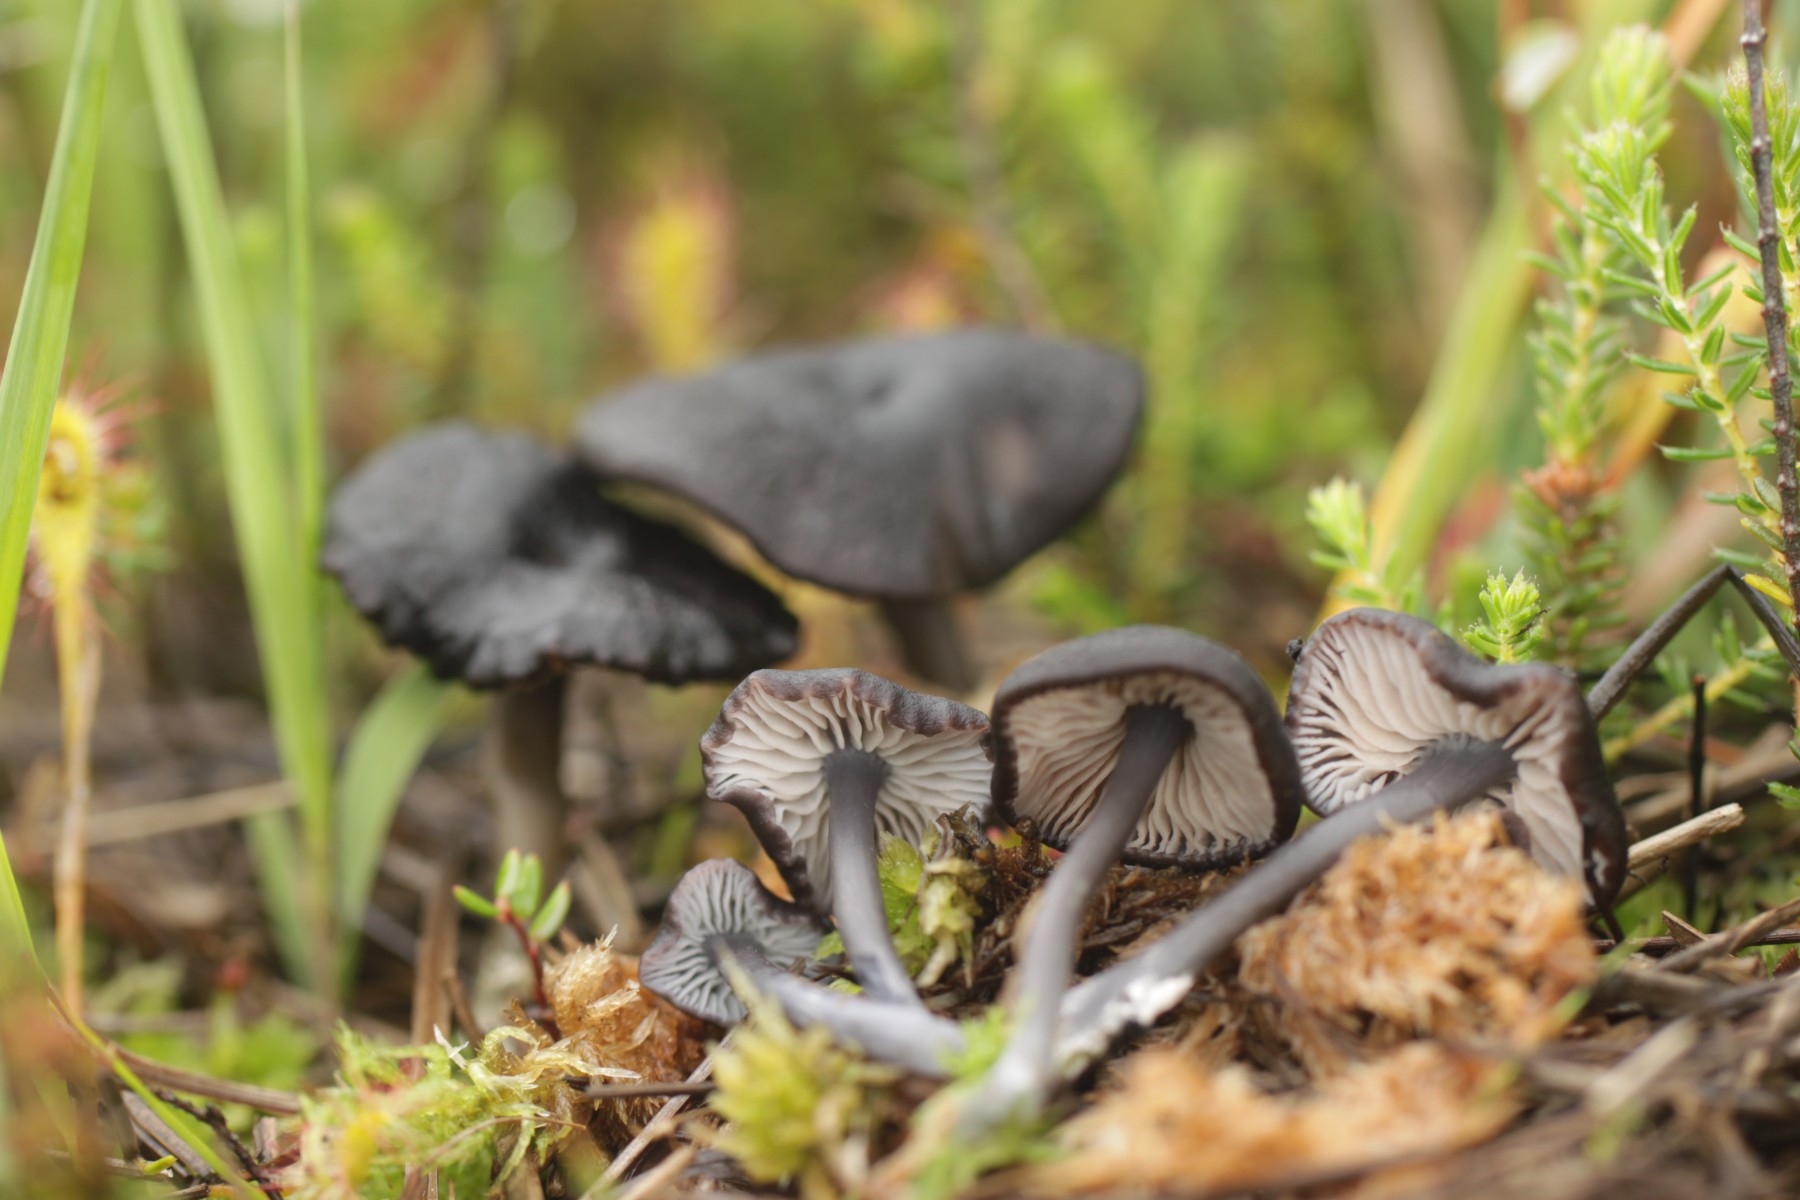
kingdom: Fungi
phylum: Basidiomycota
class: Agaricomycetes
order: Agaricales
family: Entolomataceae
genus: Entoloma
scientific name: Entoloma
